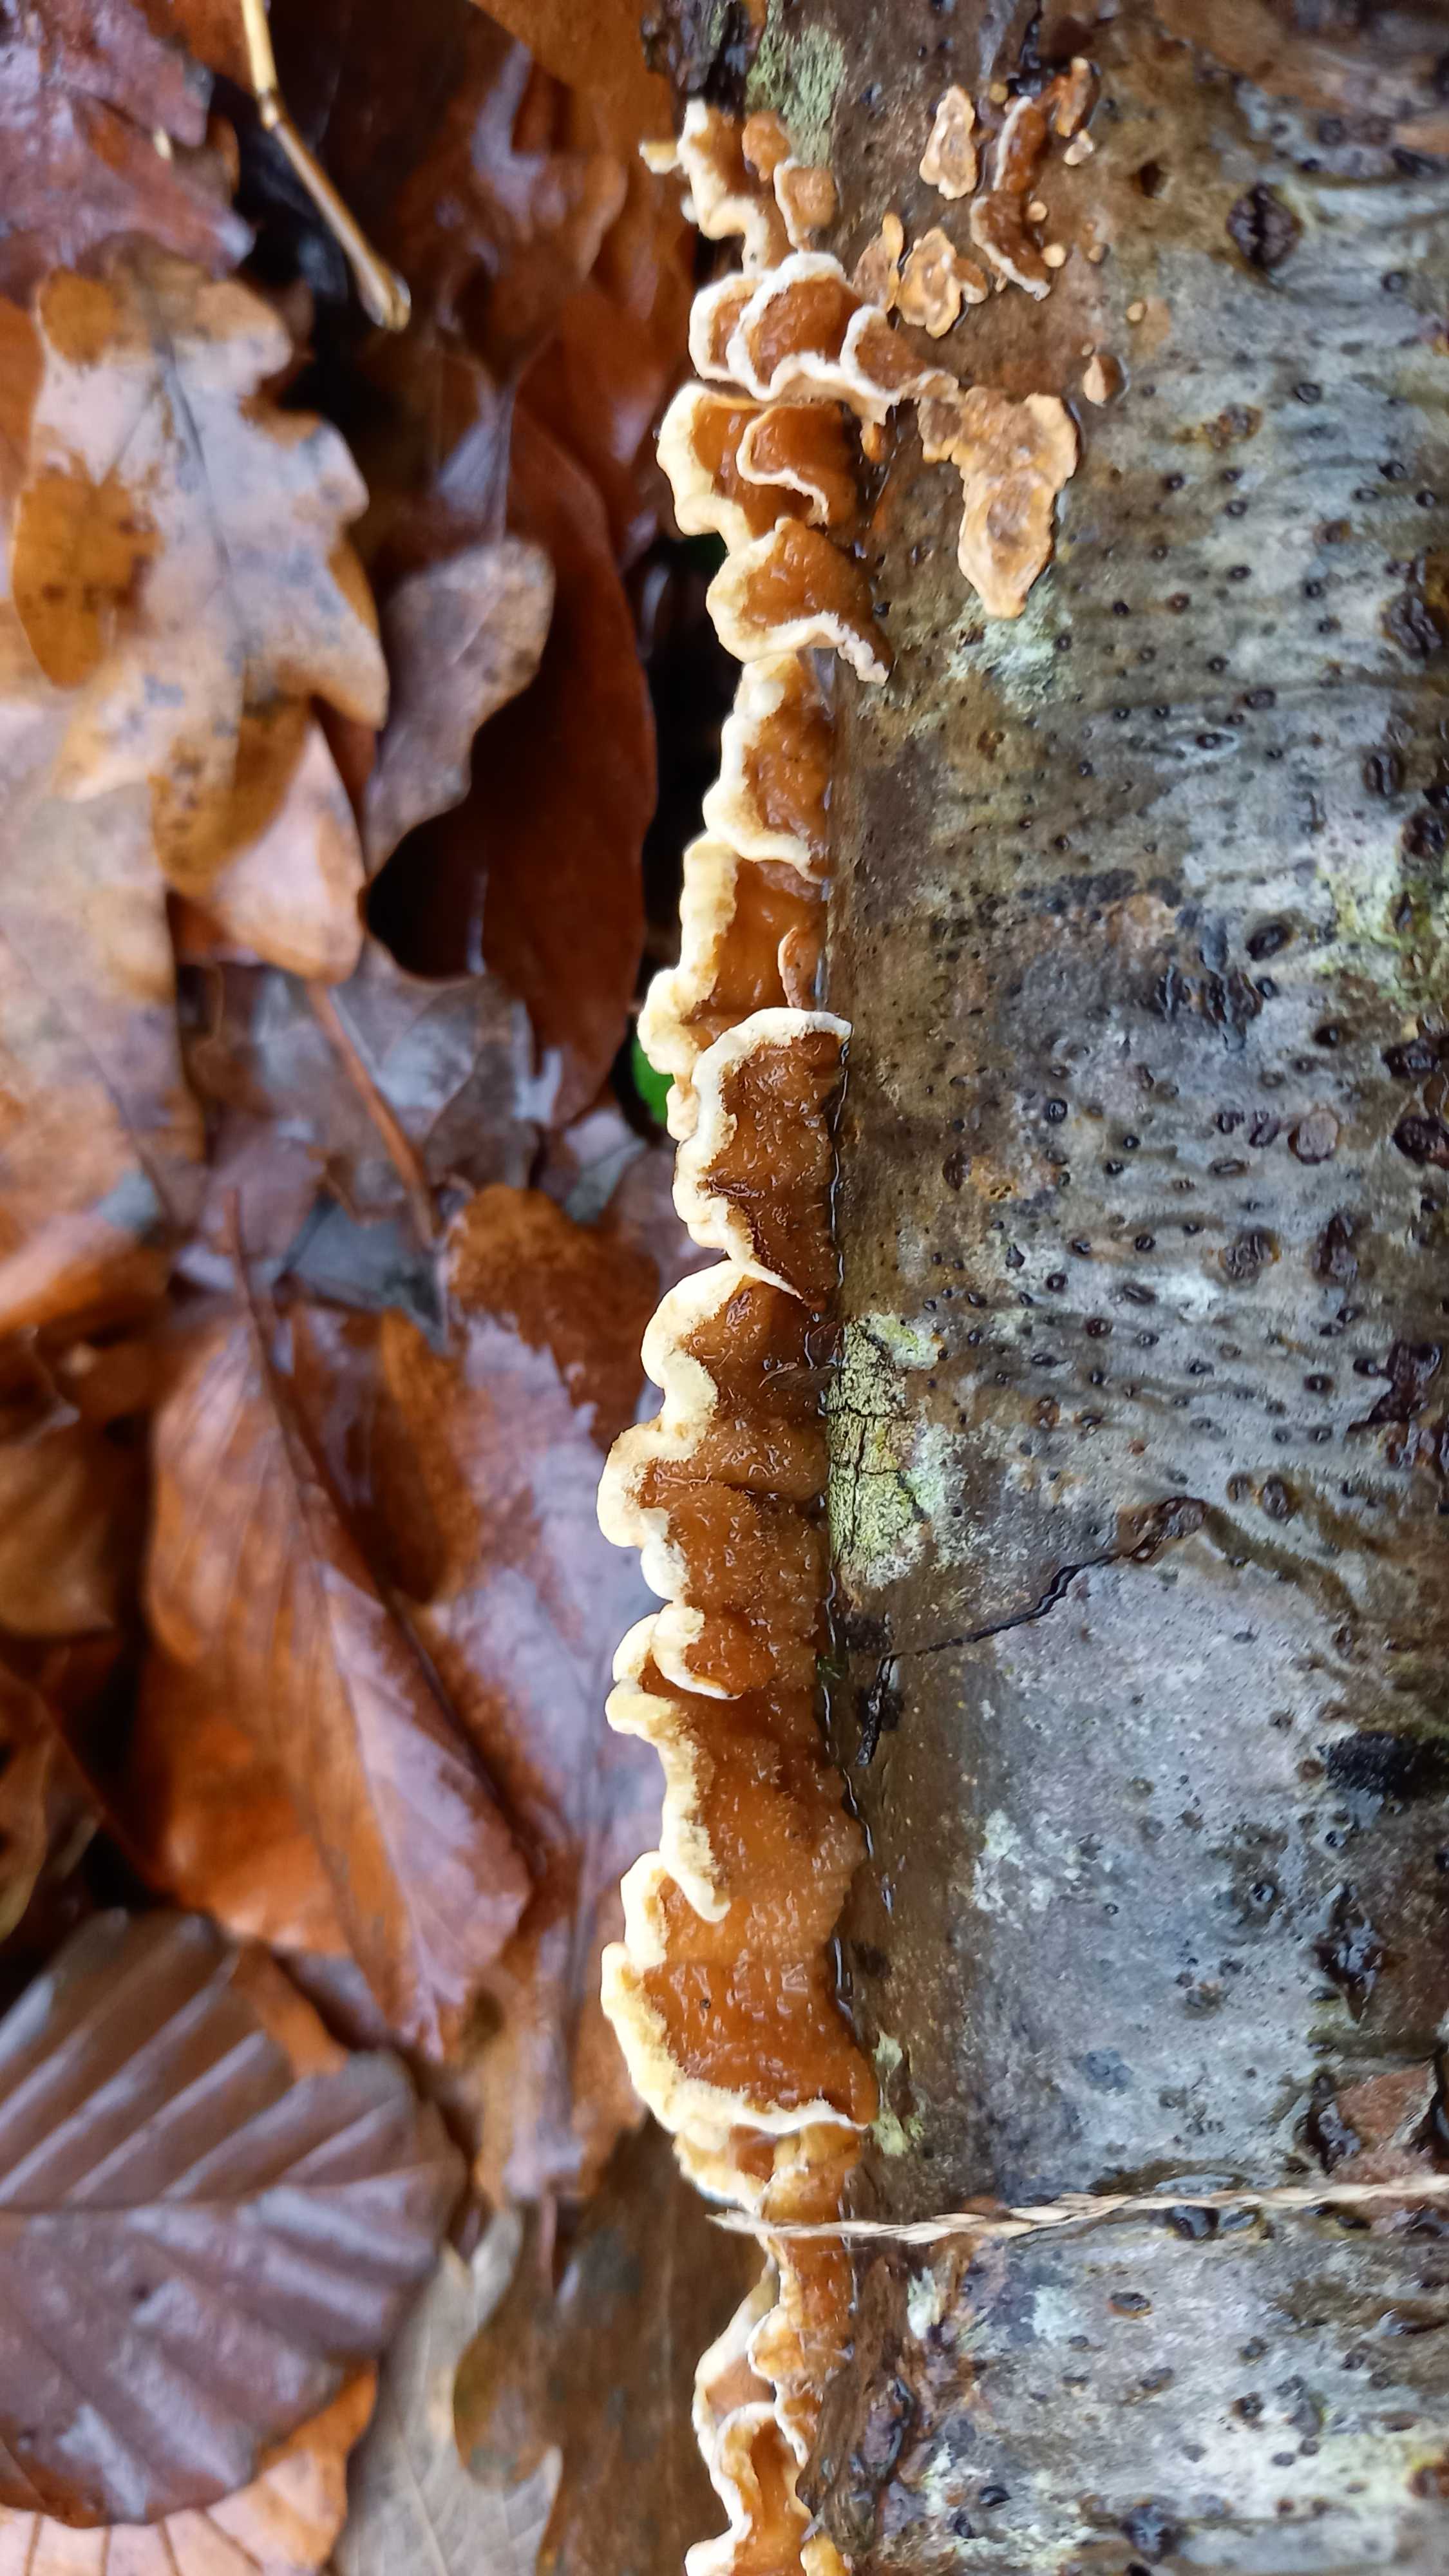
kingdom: Fungi
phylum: Basidiomycota
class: Agaricomycetes
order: Russulales
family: Stereaceae
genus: Stereum
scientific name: Stereum hirsutum
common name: håret lædersvamp
